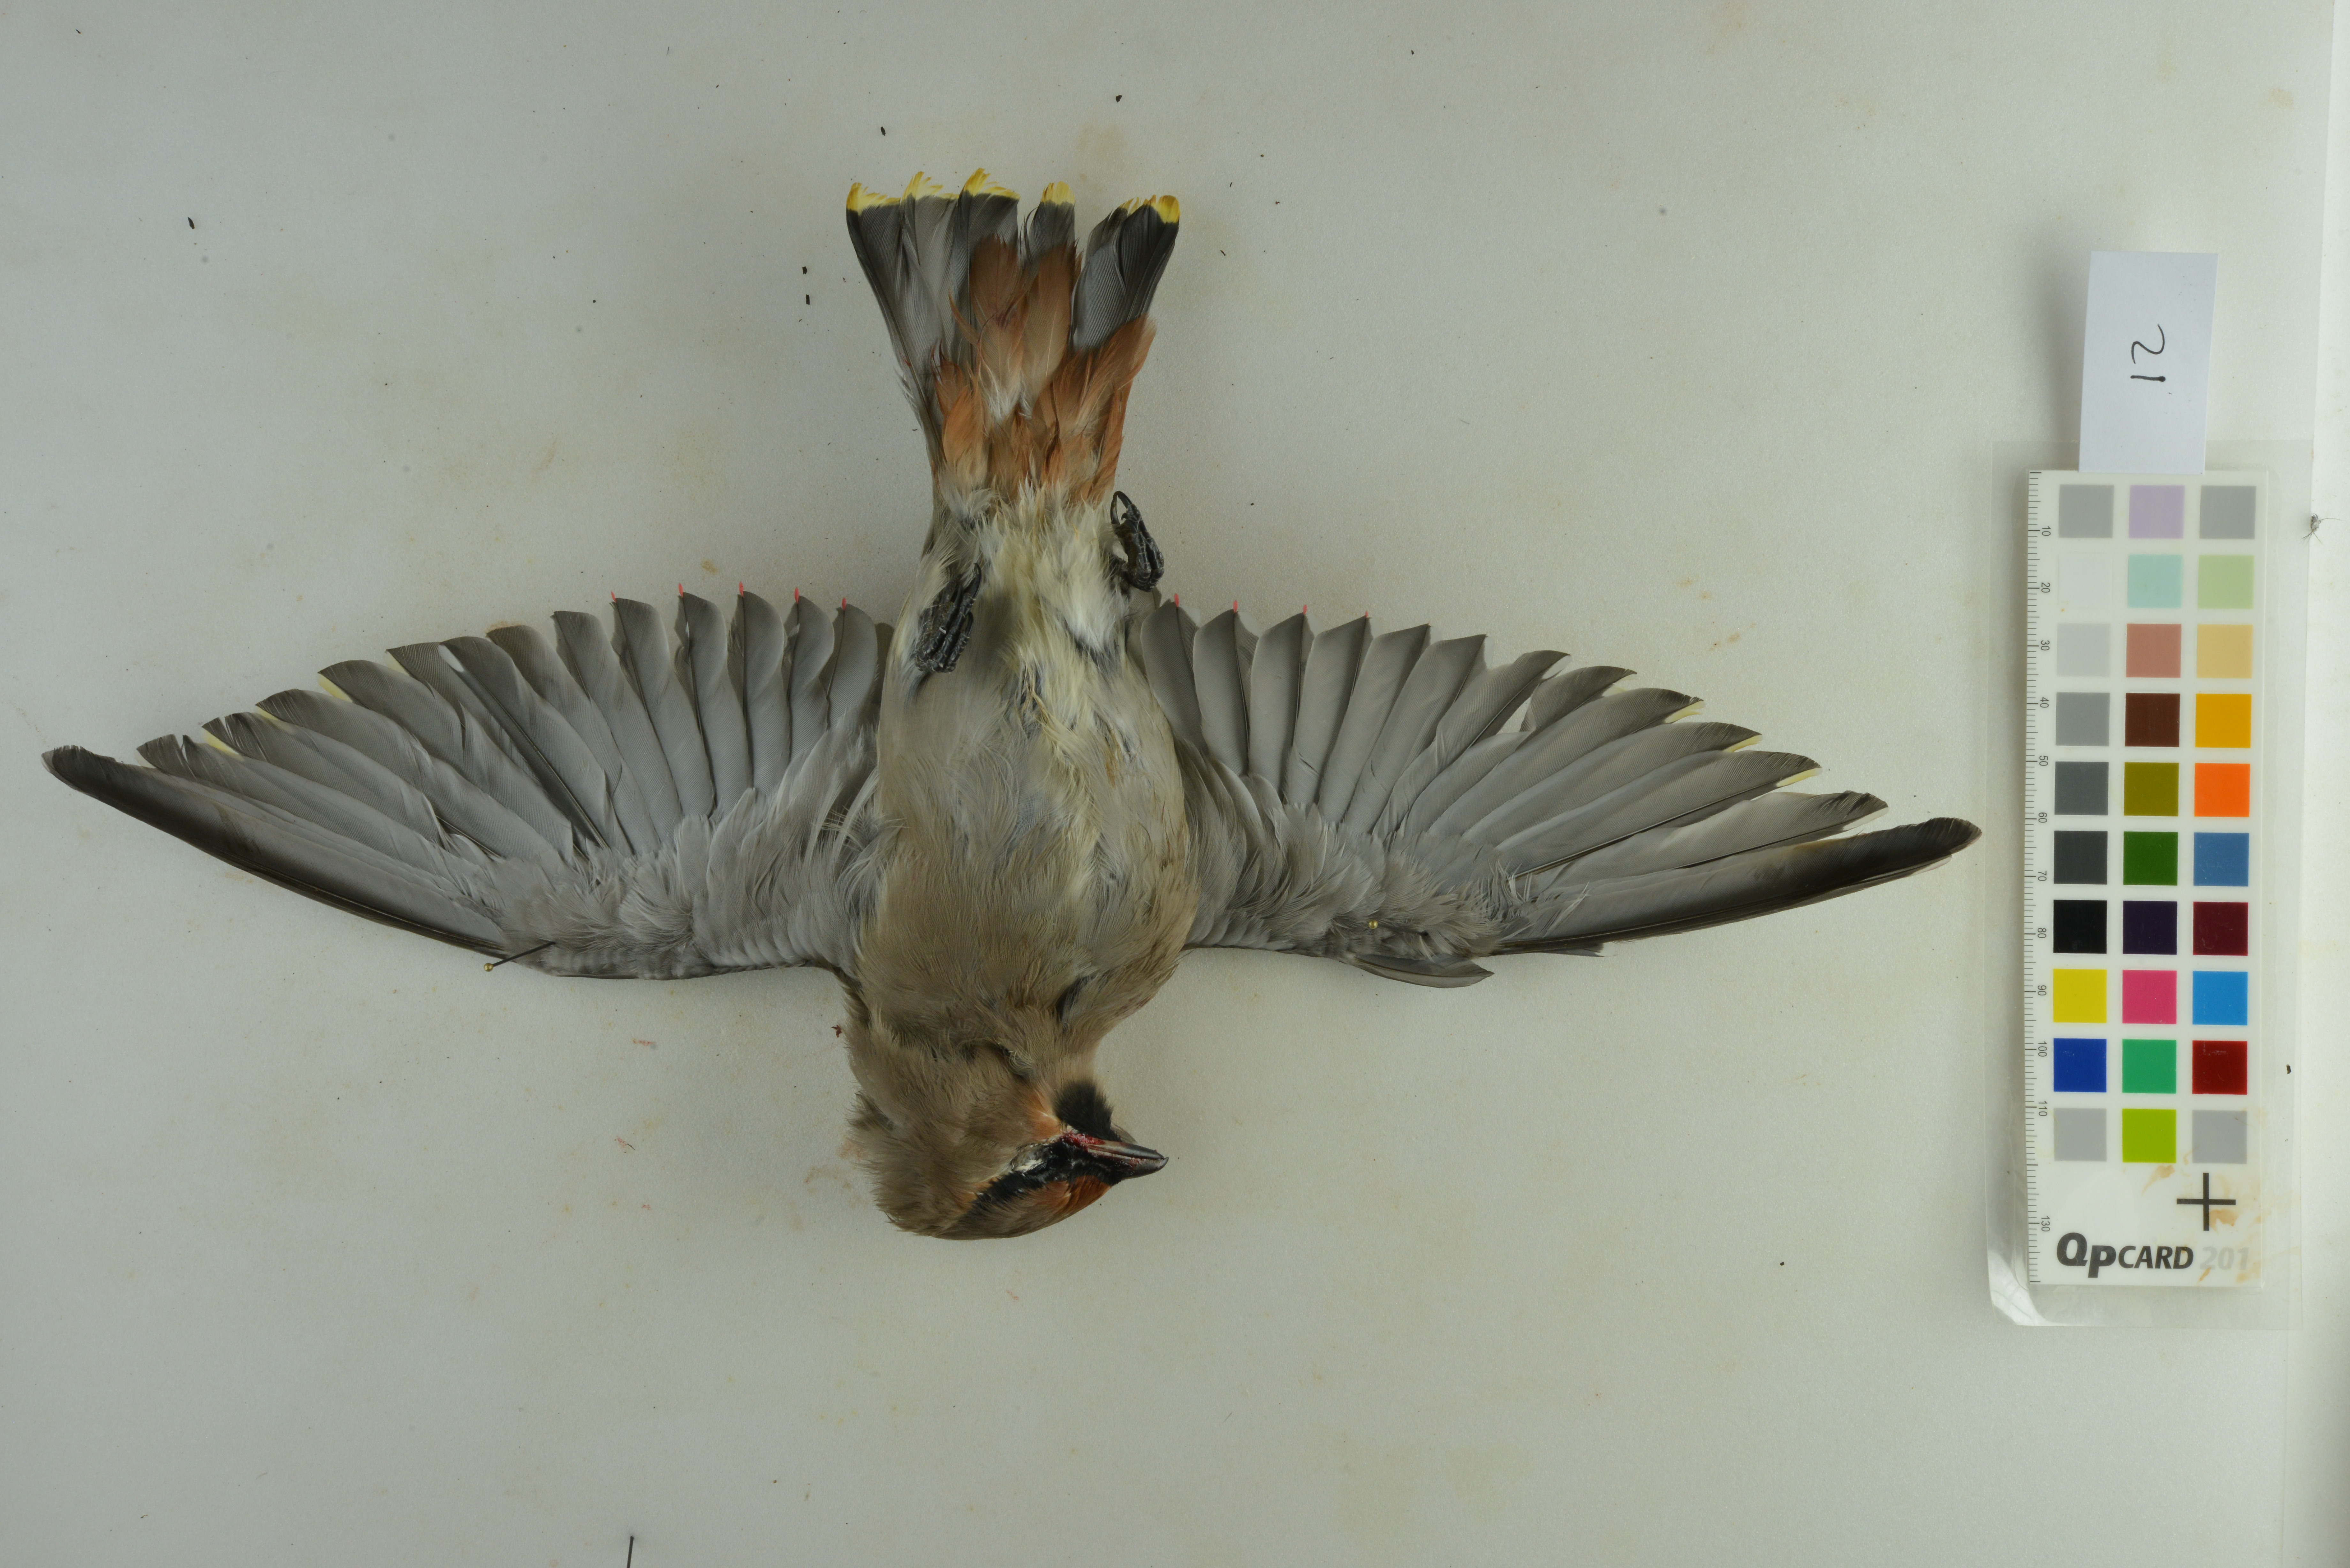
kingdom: Animalia
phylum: Chordata
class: Aves
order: Passeriformes
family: Bombycillidae
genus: Bombycilla
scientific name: Bombycilla garrulus
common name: Bohemian waxwing
